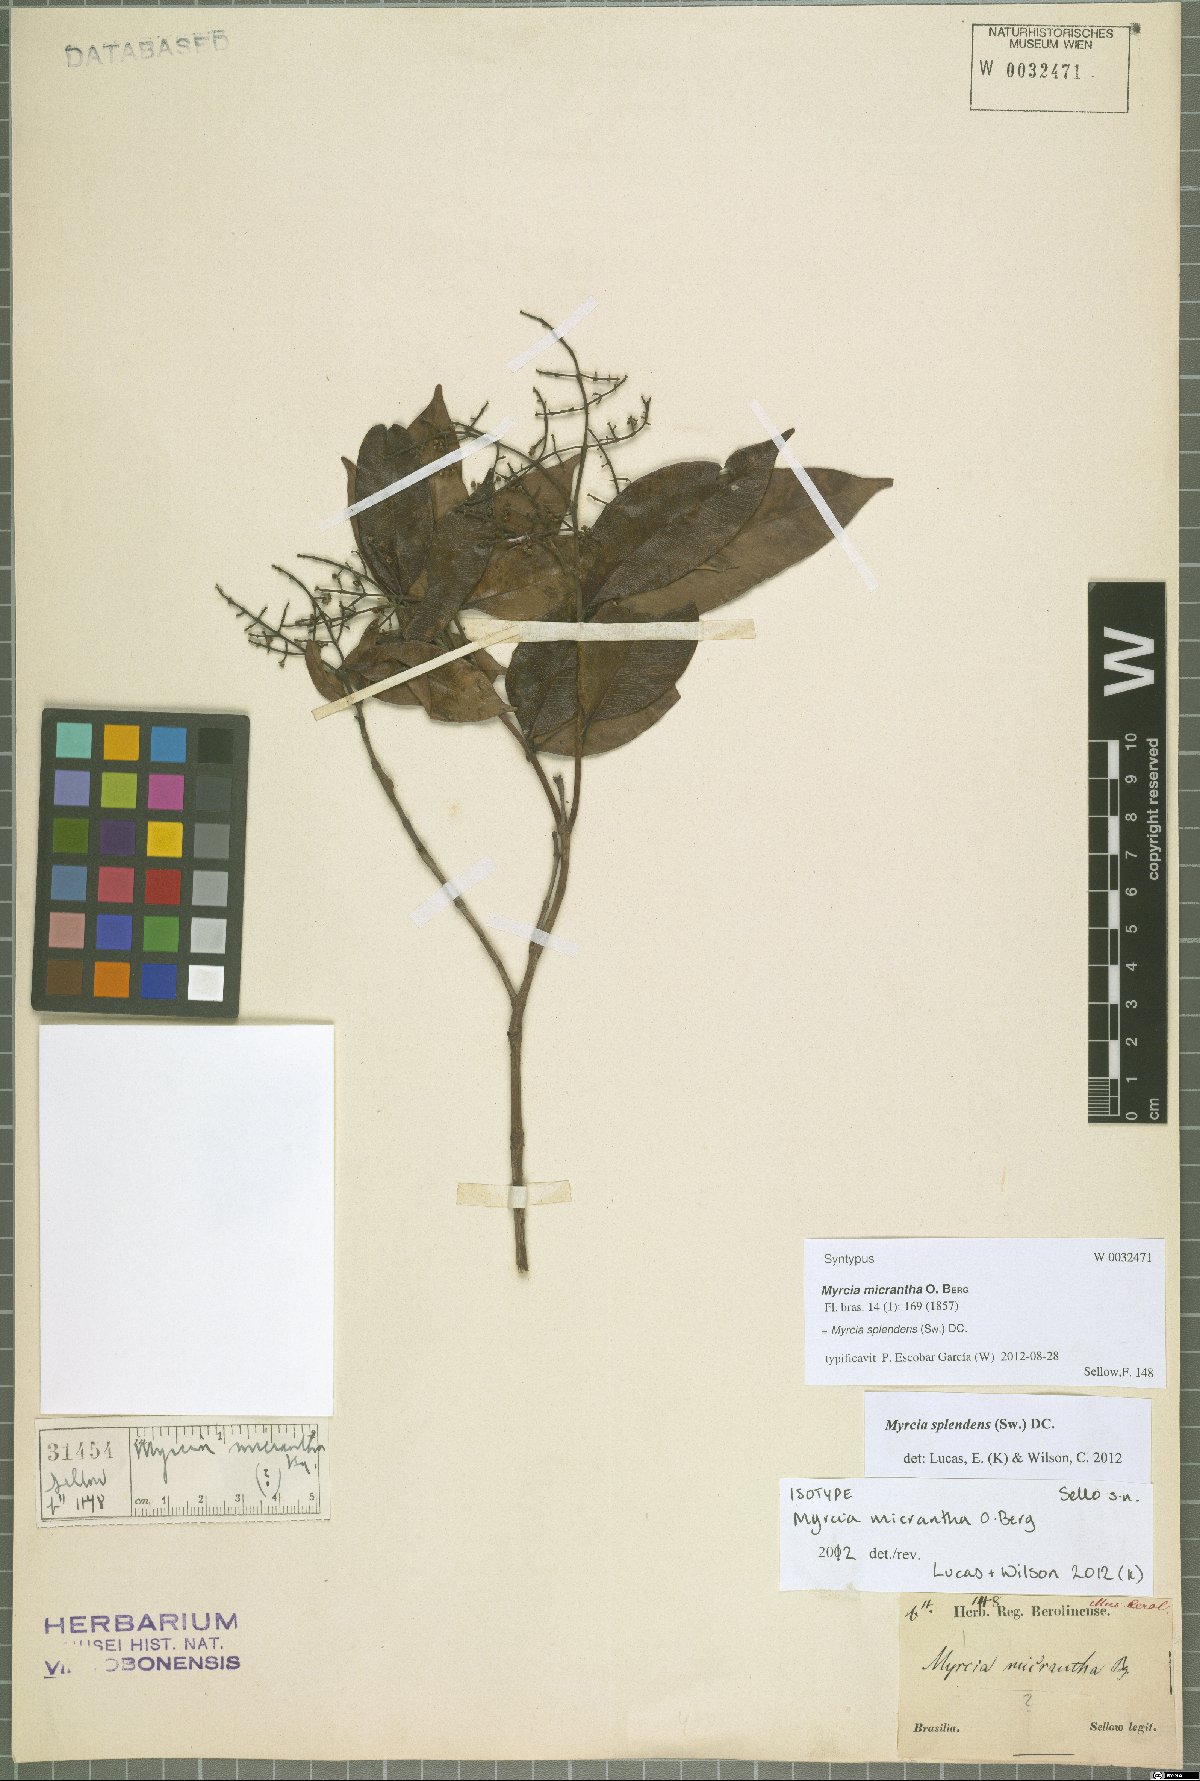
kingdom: Plantae
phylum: Tracheophyta
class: Magnoliopsida
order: Myrtales
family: Myrtaceae
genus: Myrcia
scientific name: Myrcia splendens
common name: Surinam cherry
